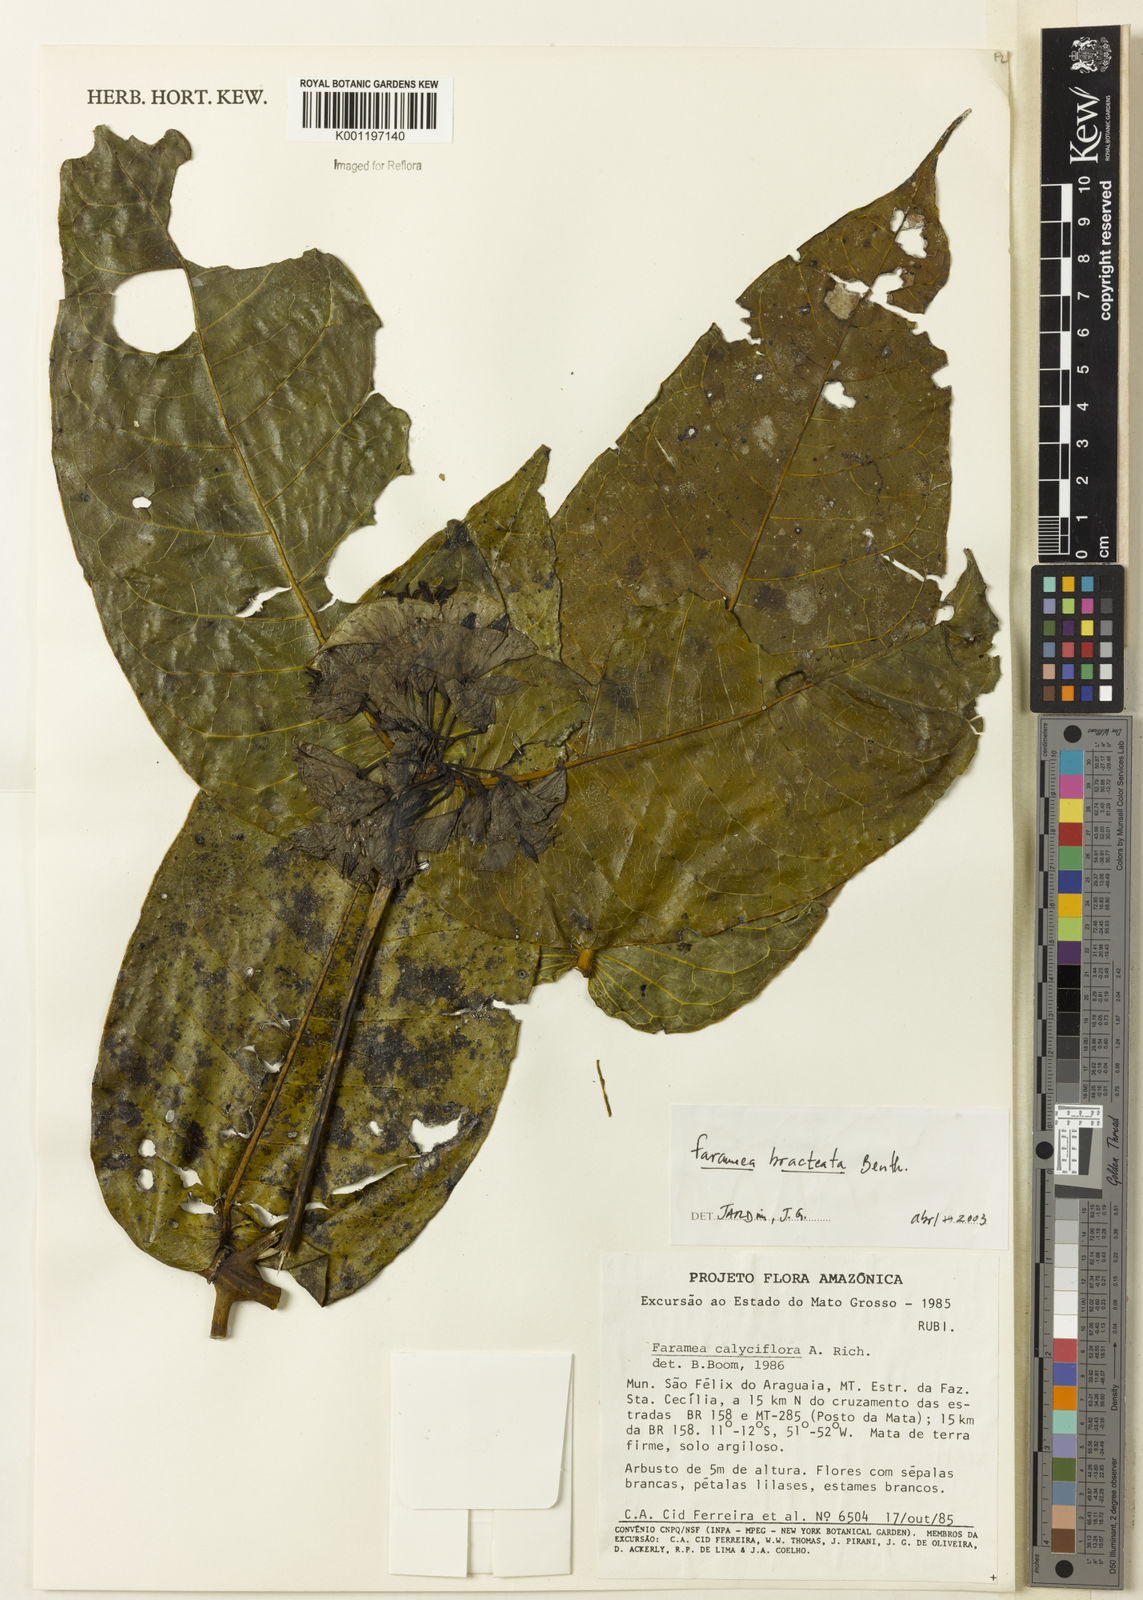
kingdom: Plantae
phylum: Tracheophyta
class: Magnoliopsida
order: Gentianales
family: Rubiaceae
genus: Faramea
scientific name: Faramea bracteata
